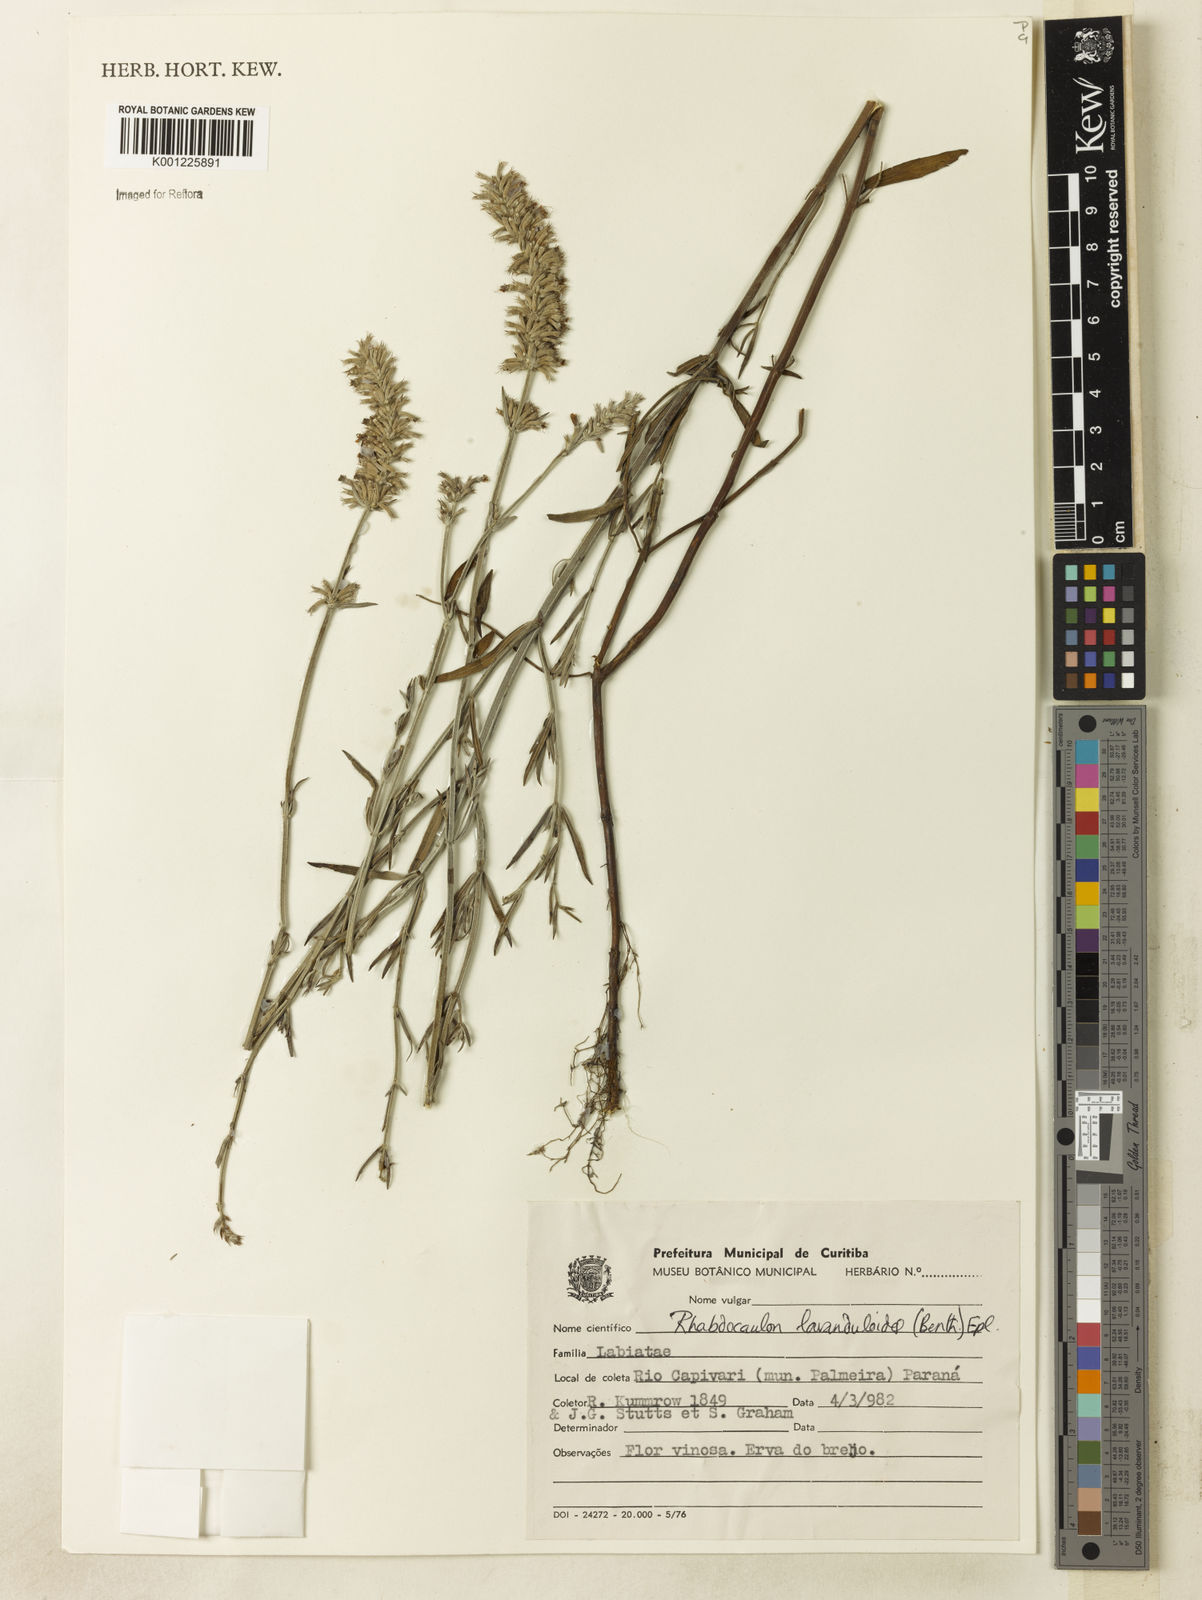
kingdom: Plantae
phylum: Tracheophyta
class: Magnoliopsida
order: Lamiales
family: Lamiaceae
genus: Rhabdocaulon
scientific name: Rhabdocaulon lavanduloides
